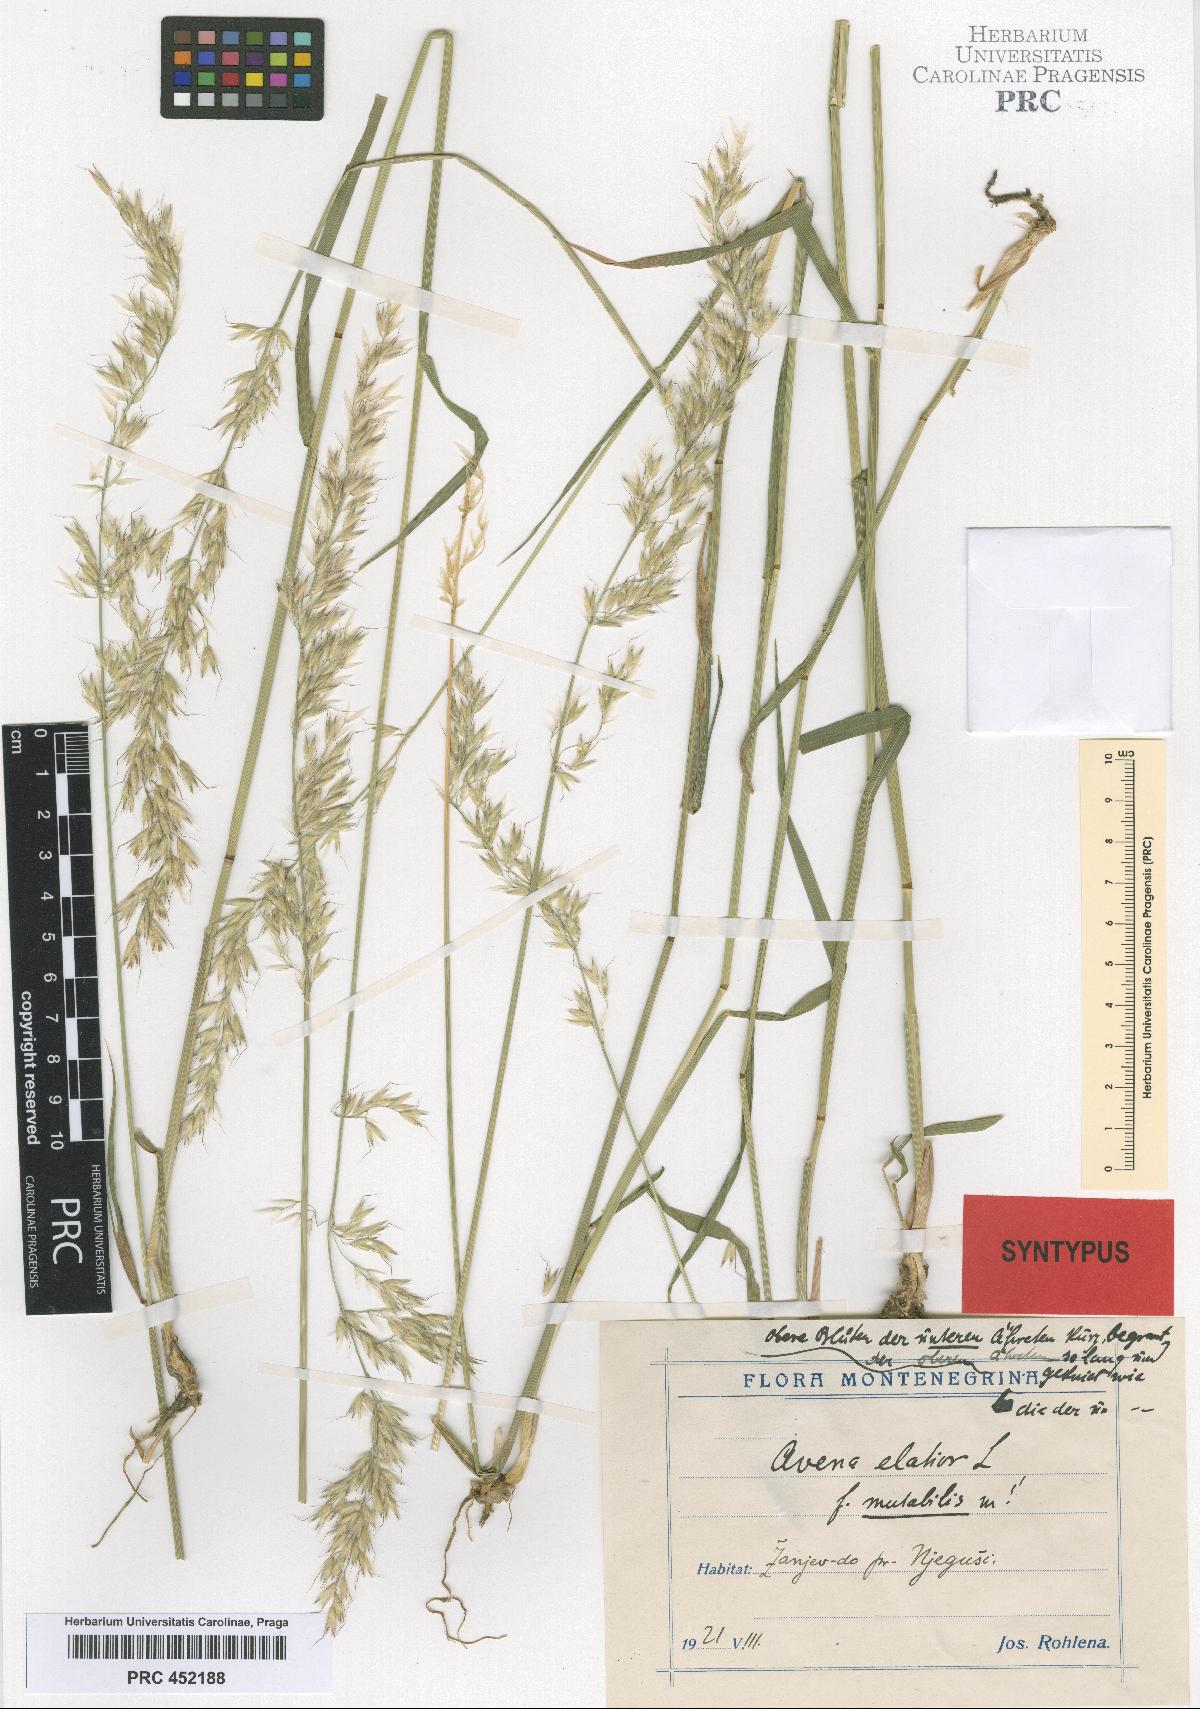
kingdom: Plantae
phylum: Tracheophyta
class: Liliopsida
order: Poales
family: Poaceae
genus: Arrhenatherum
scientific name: Arrhenatherum elatius
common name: Tall oatgrass
